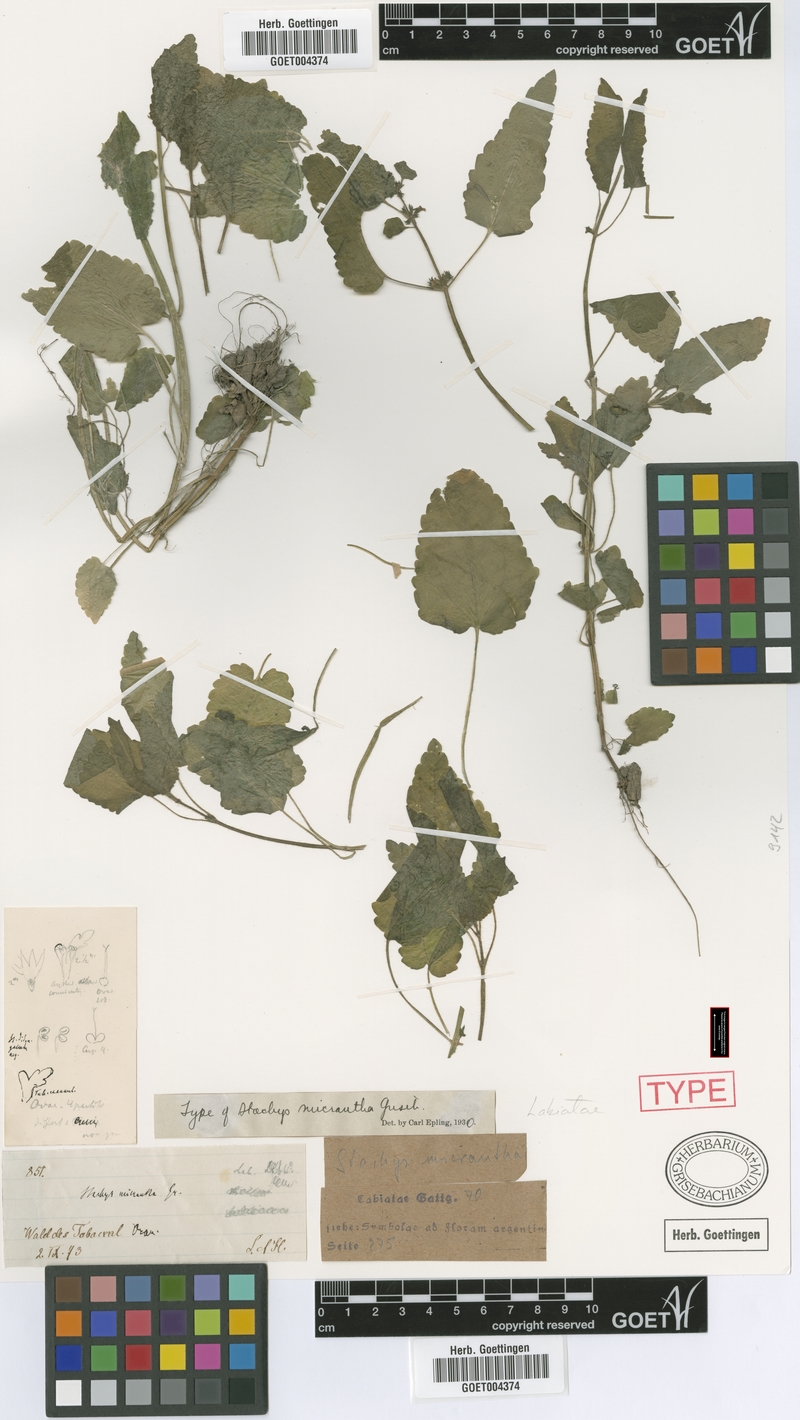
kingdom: Plantae
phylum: Tracheophyta
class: Magnoliopsida
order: Lamiales
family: Lamiaceae
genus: Stachys
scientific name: Stachys gilliesii
